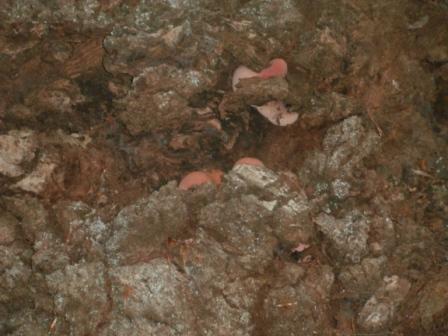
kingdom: Fungi
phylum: Basidiomycota
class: Agaricomycetes
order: Agaricales
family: Fistulinaceae
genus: Fistulina
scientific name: Fistulina hepatica
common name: oksetunge
